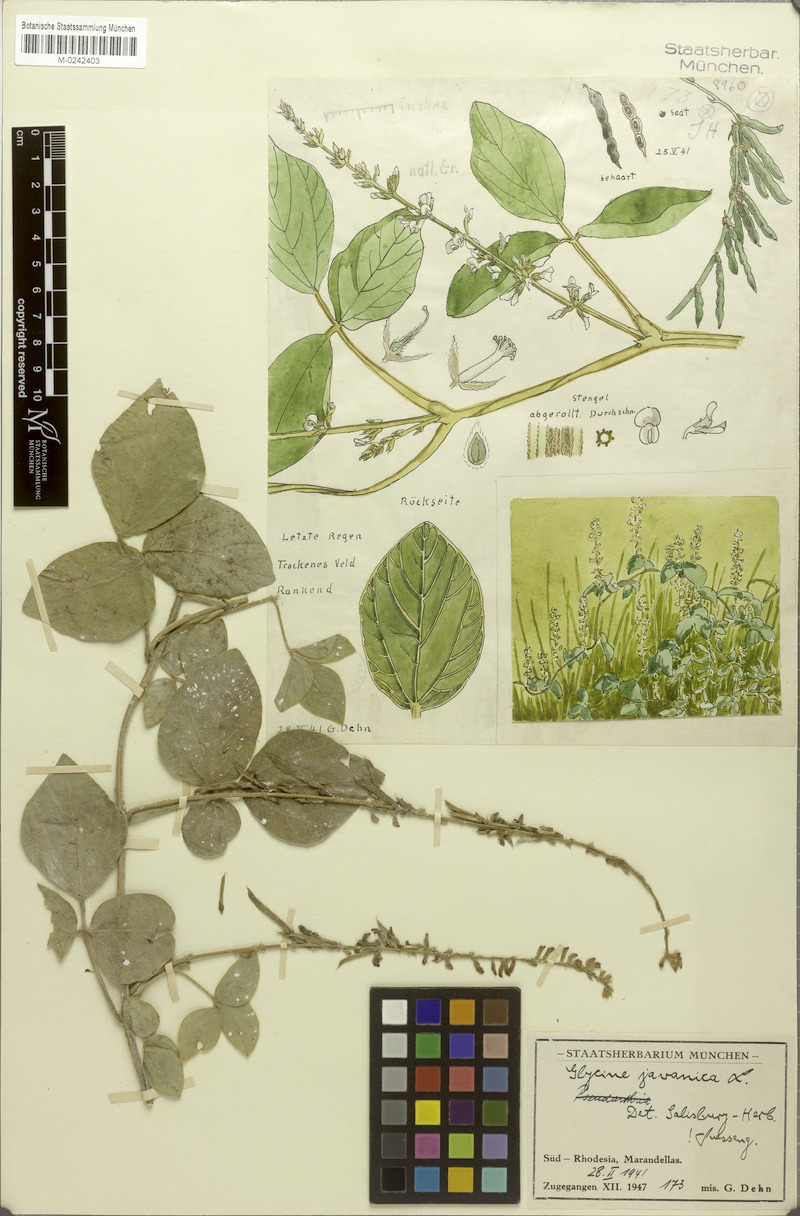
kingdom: Plantae
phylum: Tracheophyta
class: Magnoliopsida
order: Fabales
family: Fabaceae
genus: Pueraria
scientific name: Pueraria montana
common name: Kudzu
